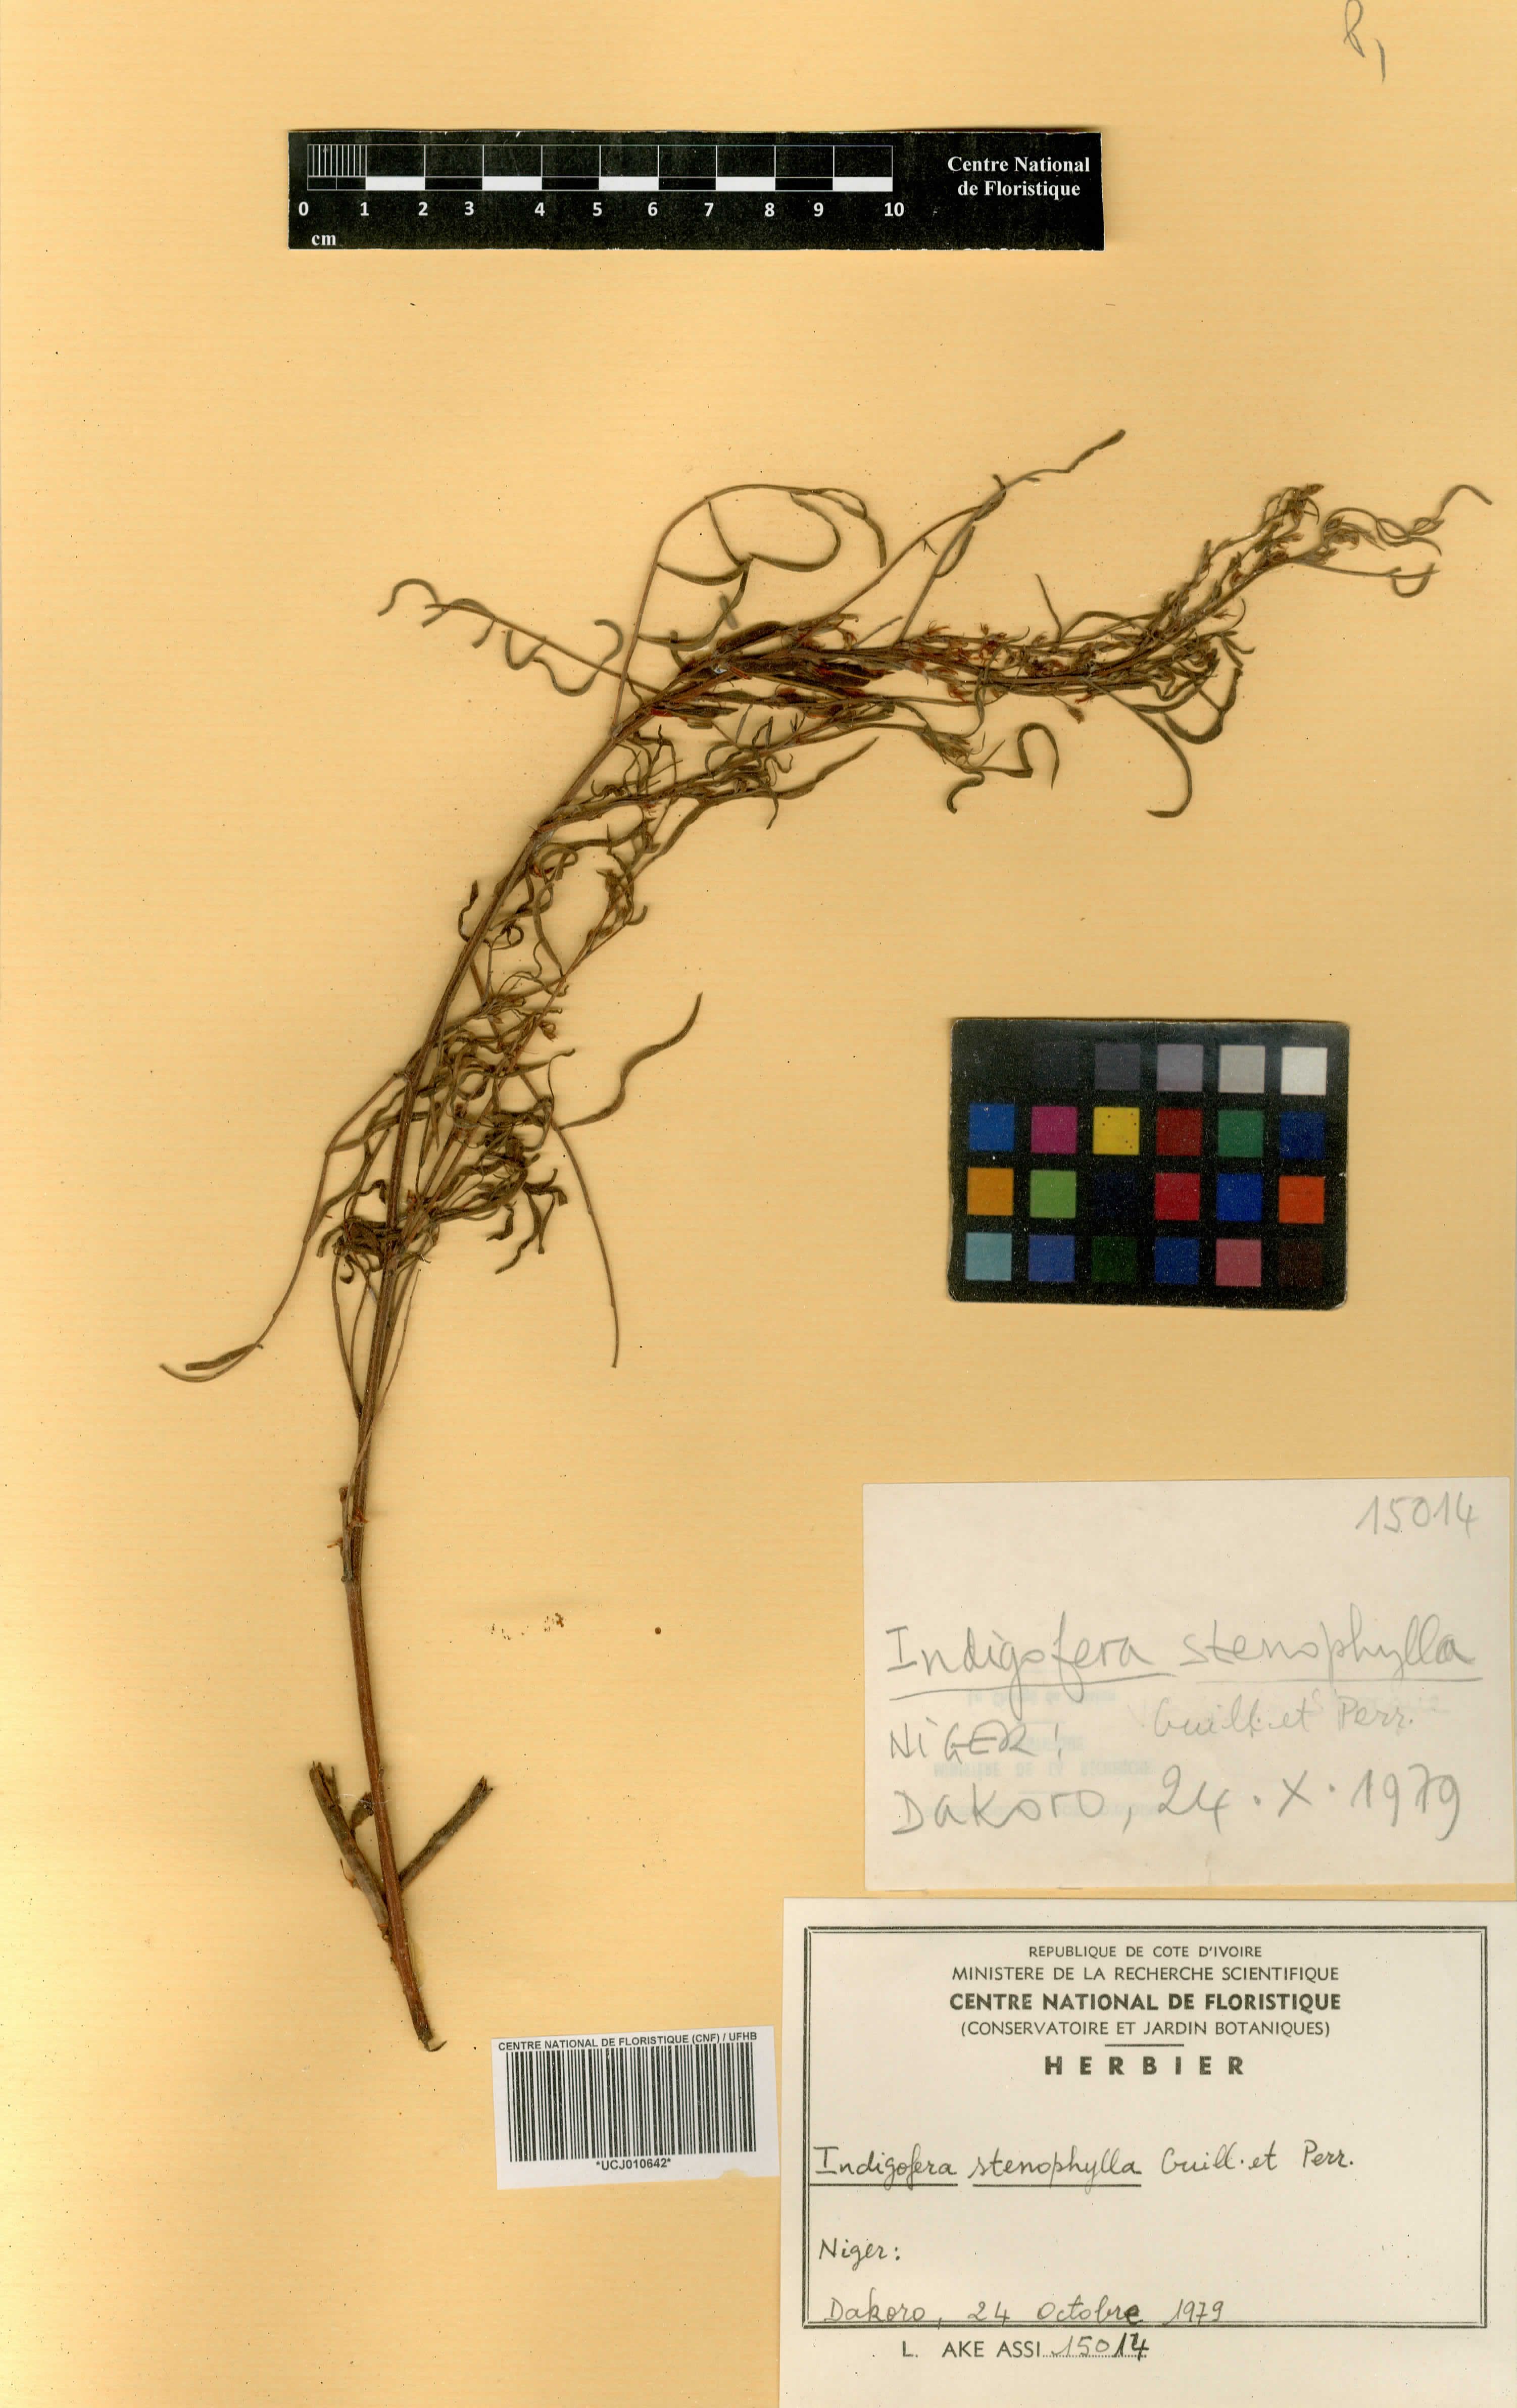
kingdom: Plantae
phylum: Tracheophyta
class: Magnoliopsida
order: Fabales
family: Fabaceae
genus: Indigofera
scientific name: Indigofera suffruticosa
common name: Anil de pasto
